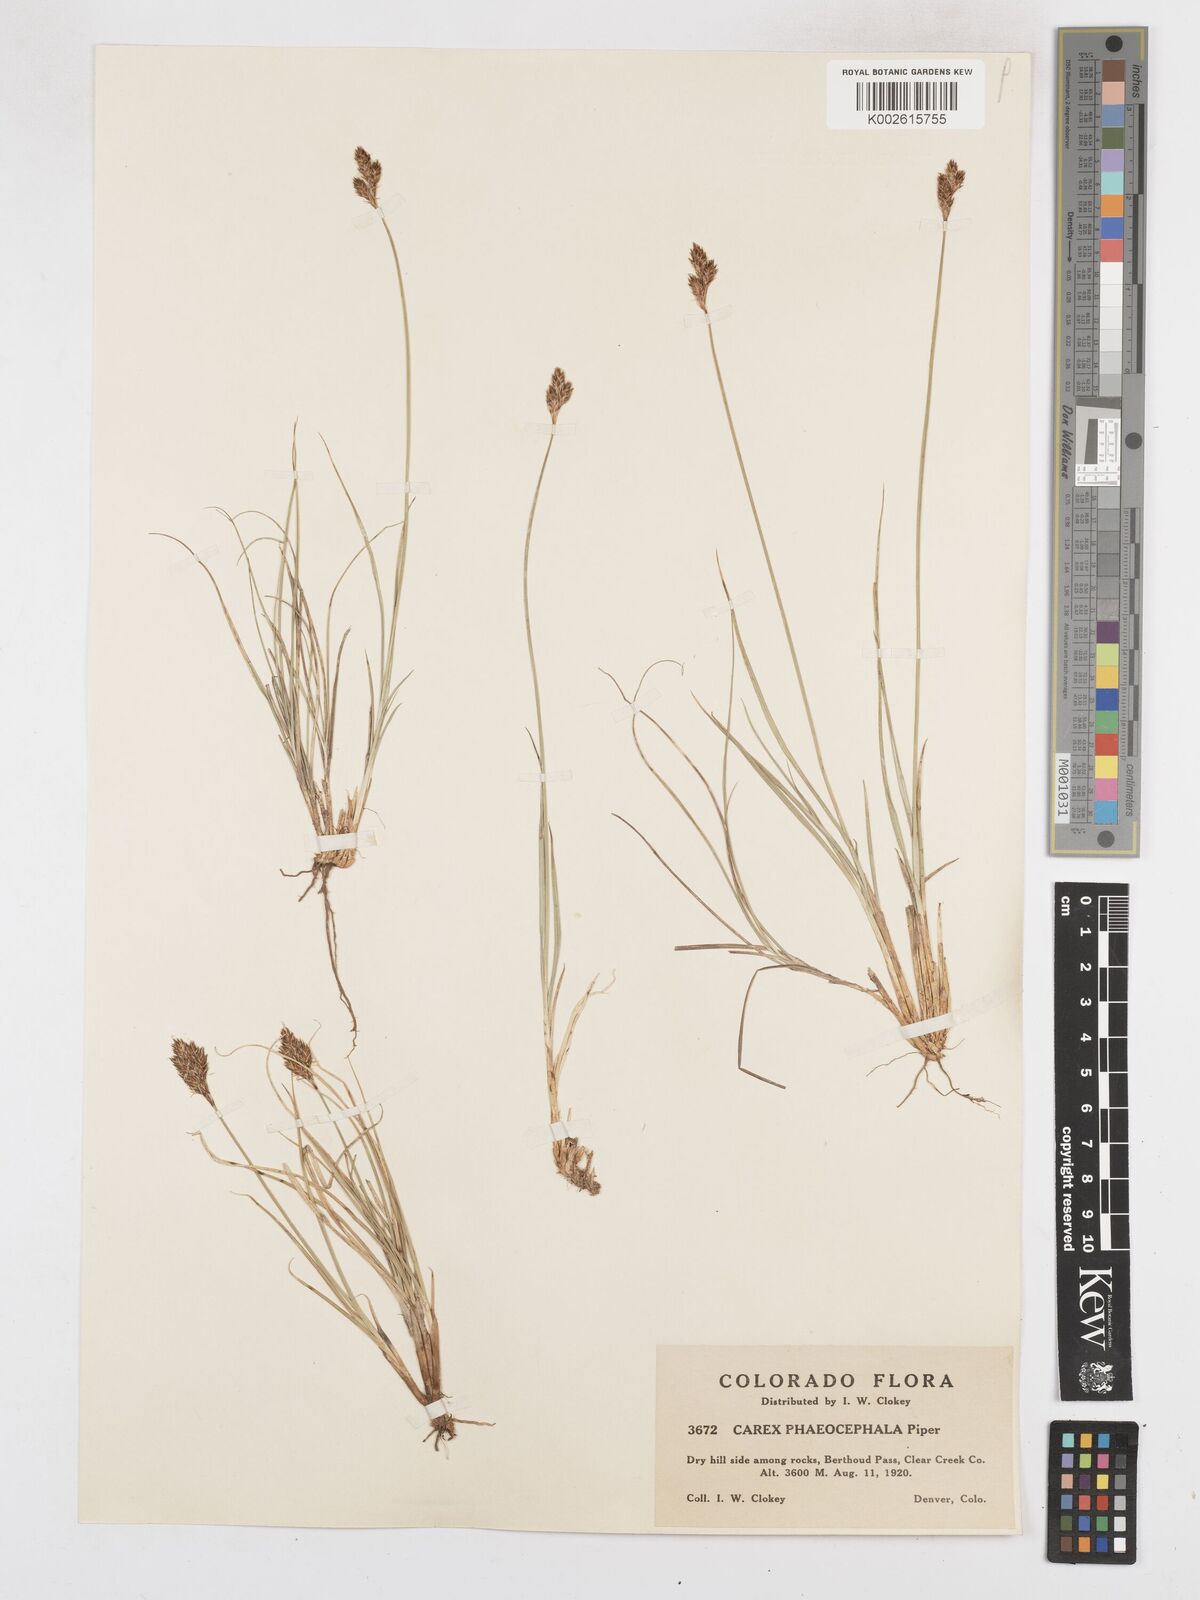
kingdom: Plantae
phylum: Tracheophyta
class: Liliopsida
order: Poales
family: Cyperaceae
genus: Carex
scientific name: Carex phaeocephala
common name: Brown-head sedge
